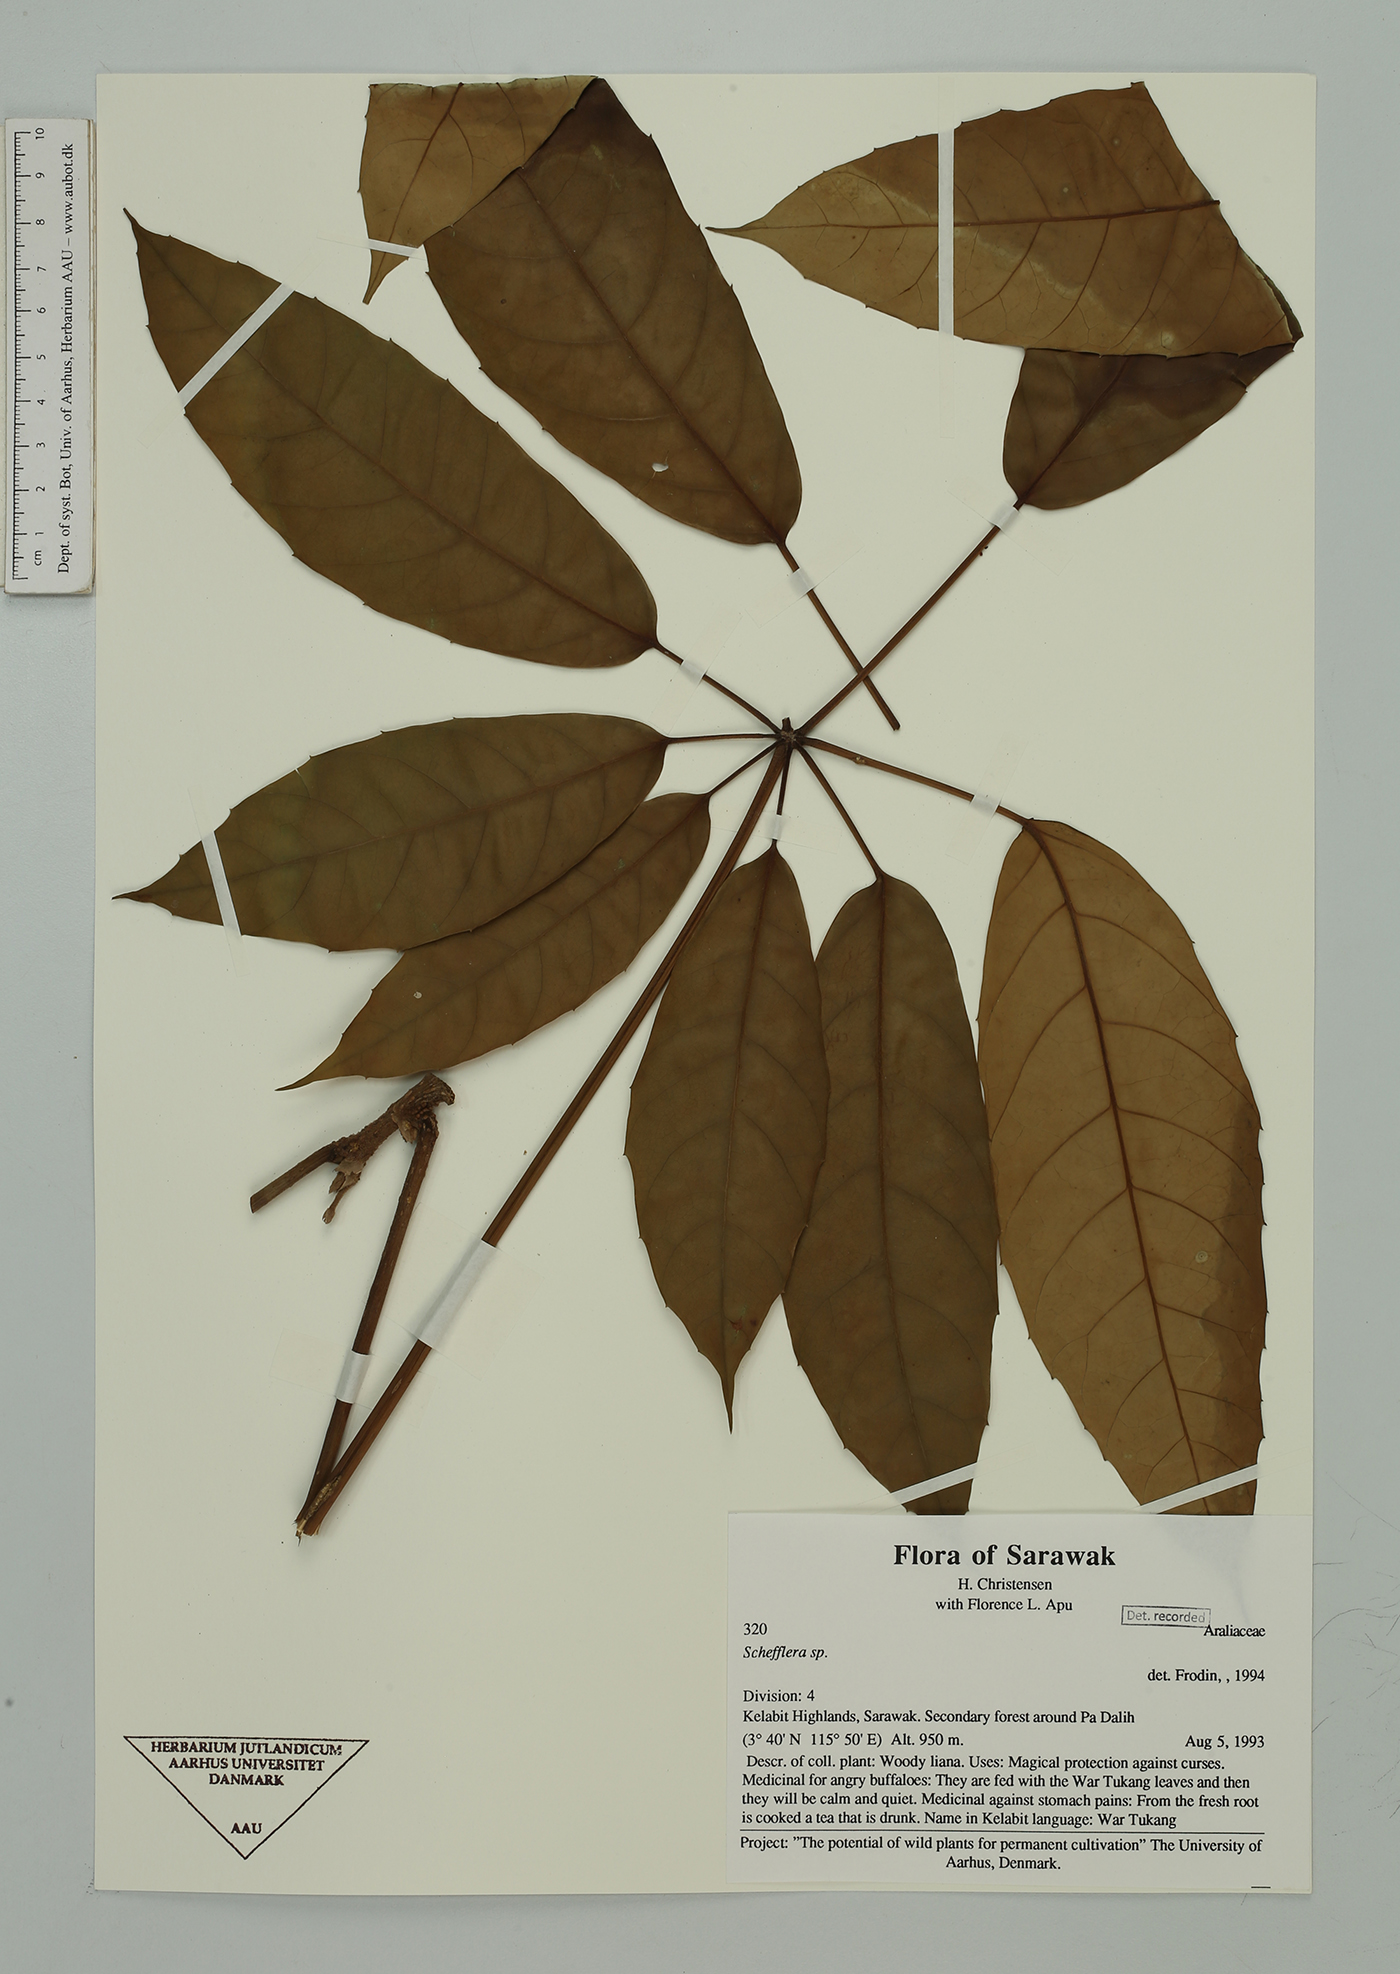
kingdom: Plantae
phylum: Tracheophyta
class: Magnoliopsida
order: Apiales
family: Araliaceae
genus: Schefflera
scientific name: Schefflera
